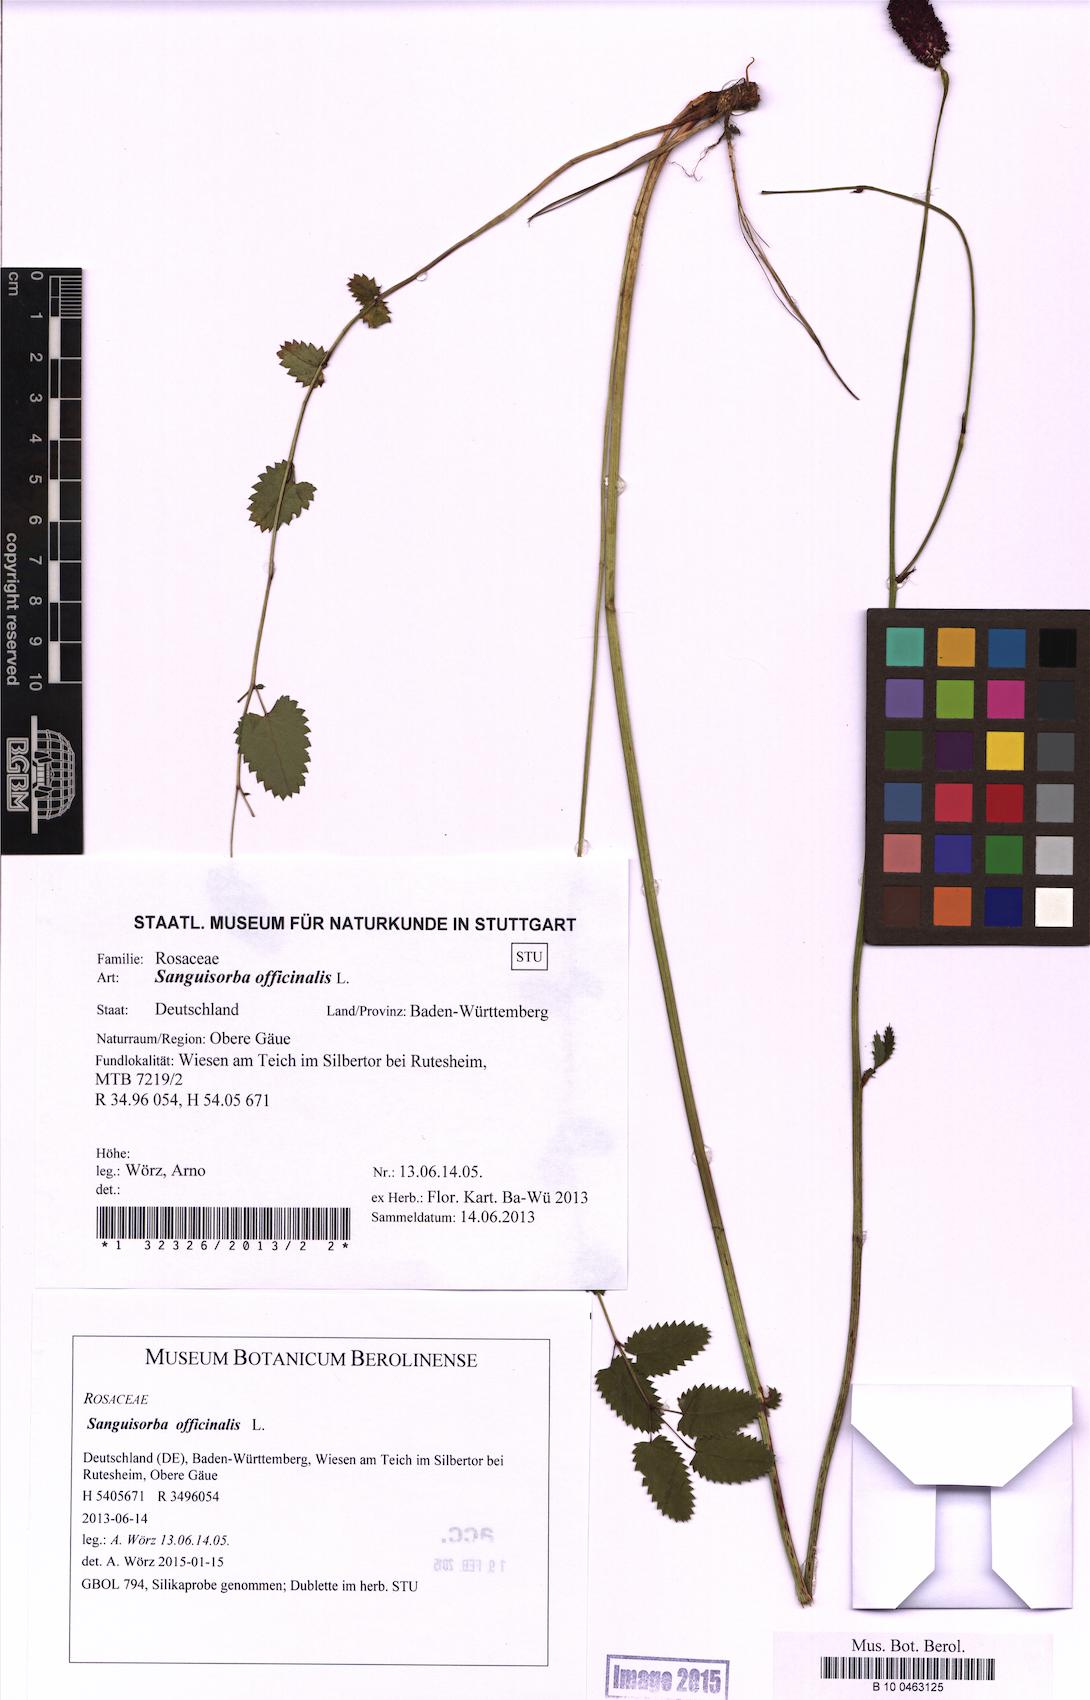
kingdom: Plantae
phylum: Tracheophyta
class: Magnoliopsida
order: Rosales
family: Rosaceae
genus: Sanguisorba
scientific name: Sanguisorba officinalis
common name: Great burnet
